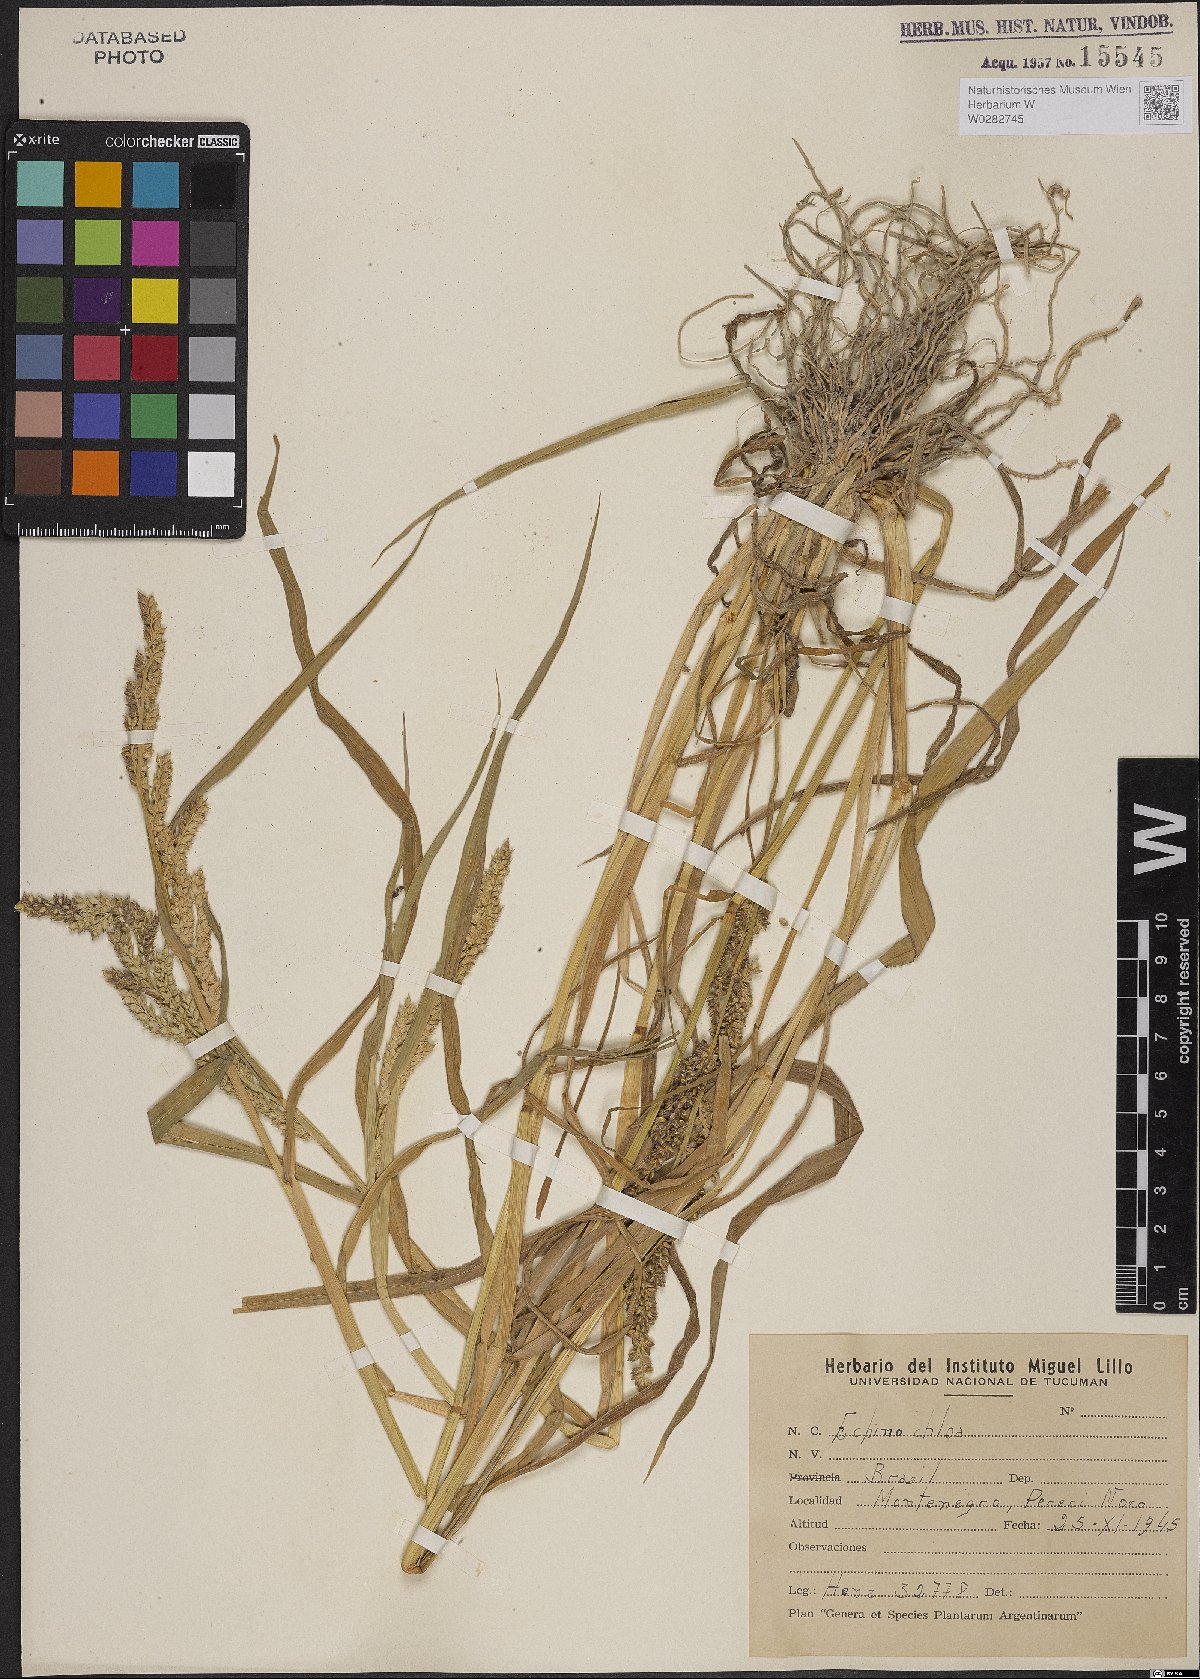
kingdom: Plantae
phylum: Tracheophyta
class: Liliopsida
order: Poales
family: Poaceae
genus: Echinochloa
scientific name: Echinochloa crus-galli
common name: Cockspur
